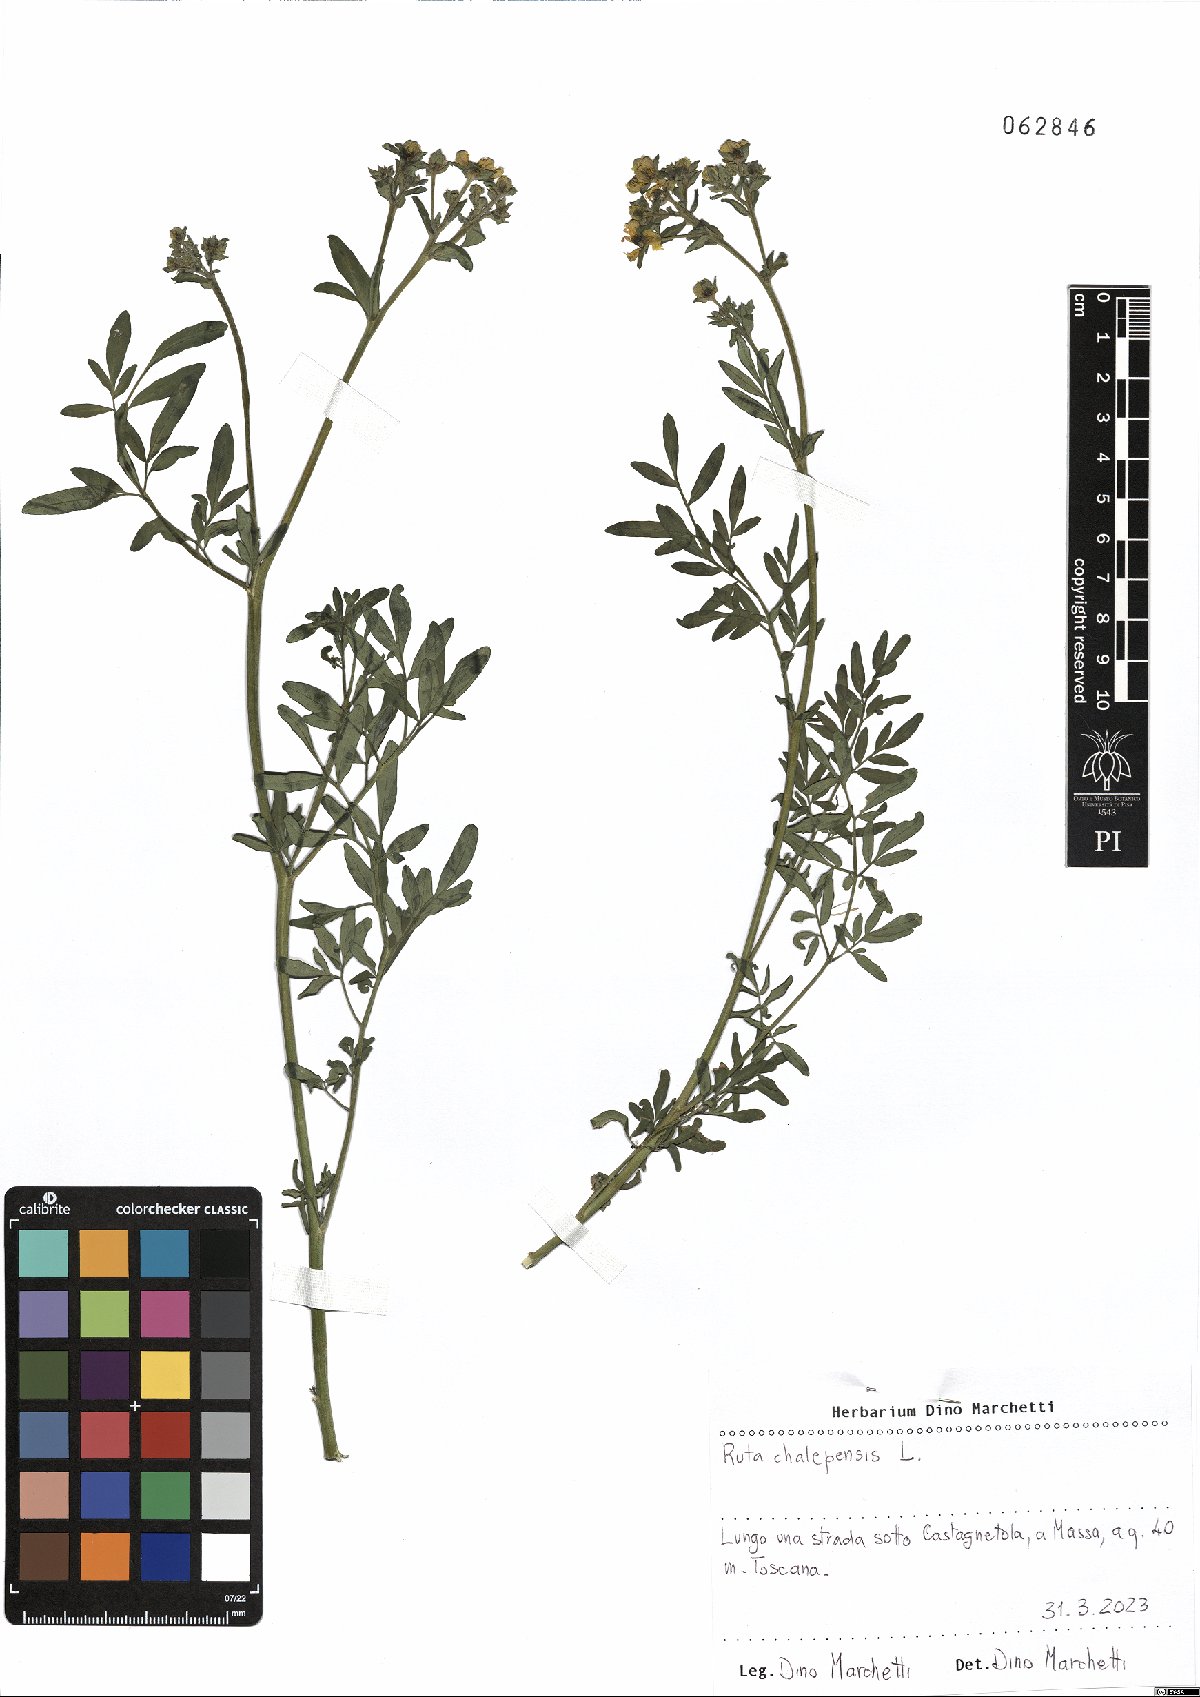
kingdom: Plantae
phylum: Tracheophyta
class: Magnoliopsida
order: Sapindales
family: Rutaceae
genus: Ruta
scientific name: Ruta chalepensis
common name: Fringed rue
